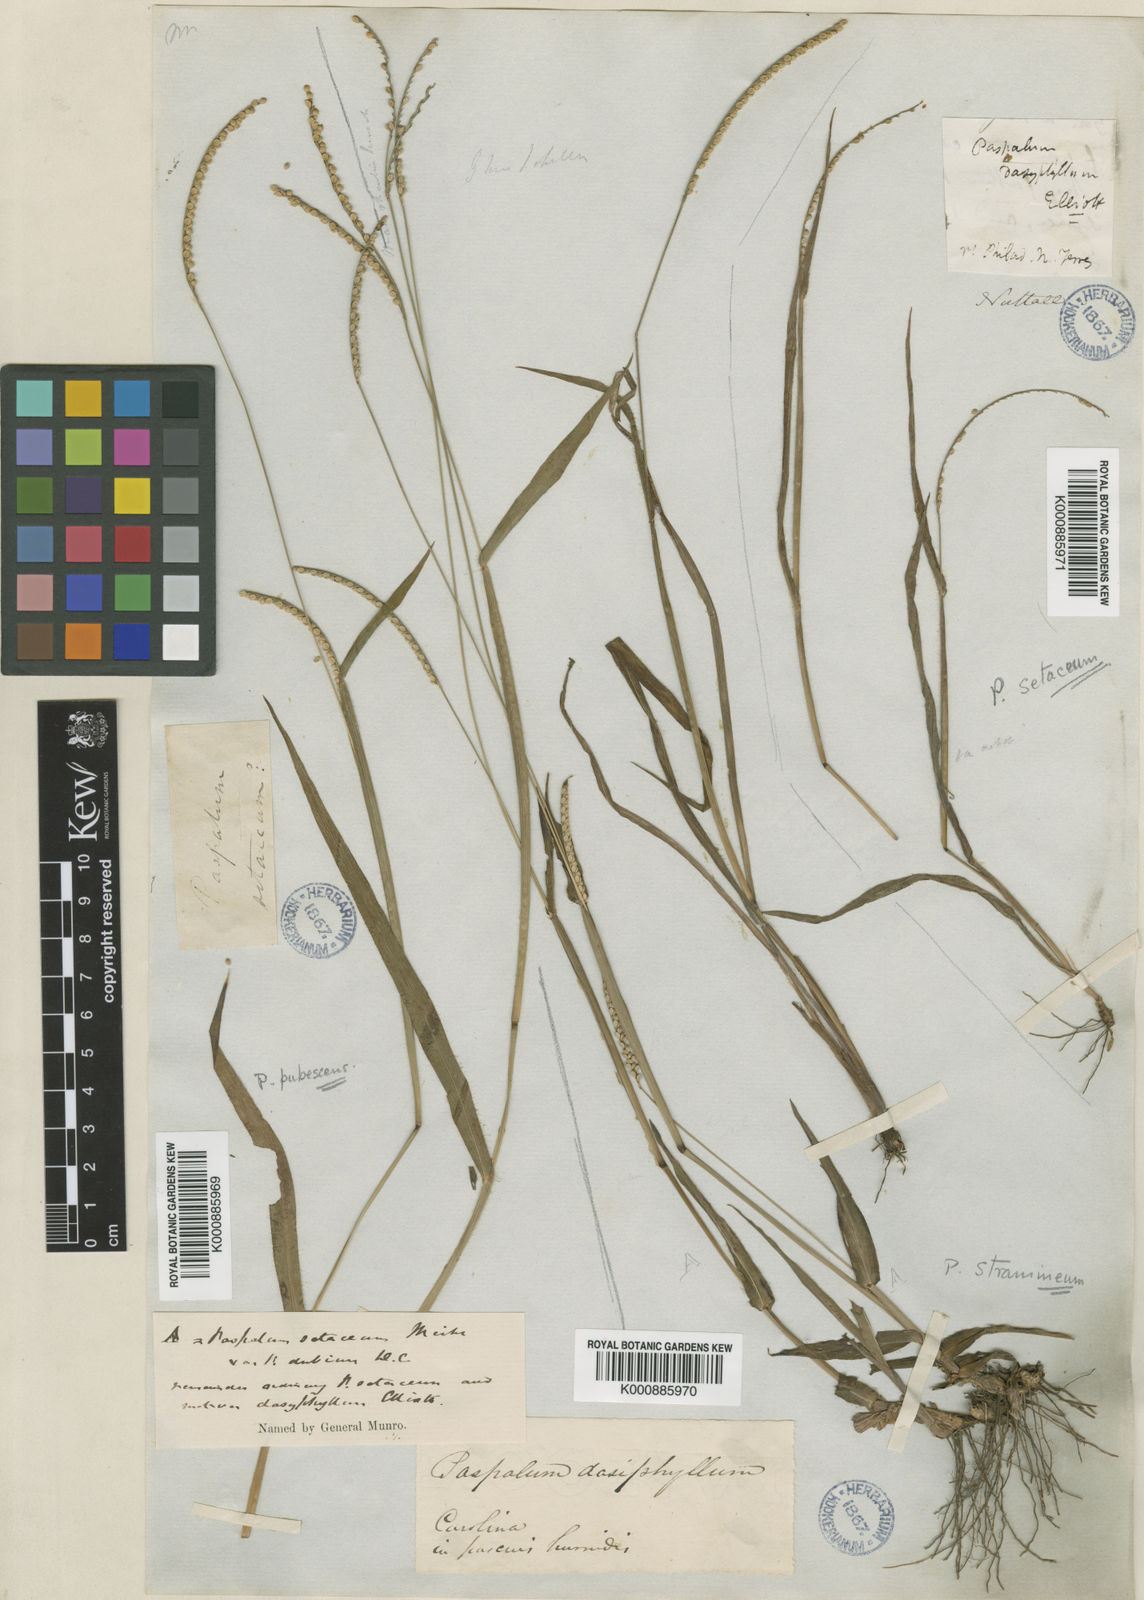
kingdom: Plantae
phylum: Tracheophyta
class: Liliopsida
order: Poales
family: Poaceae
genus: Paspalum
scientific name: Paspalum setaceum
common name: Slender paspalum
